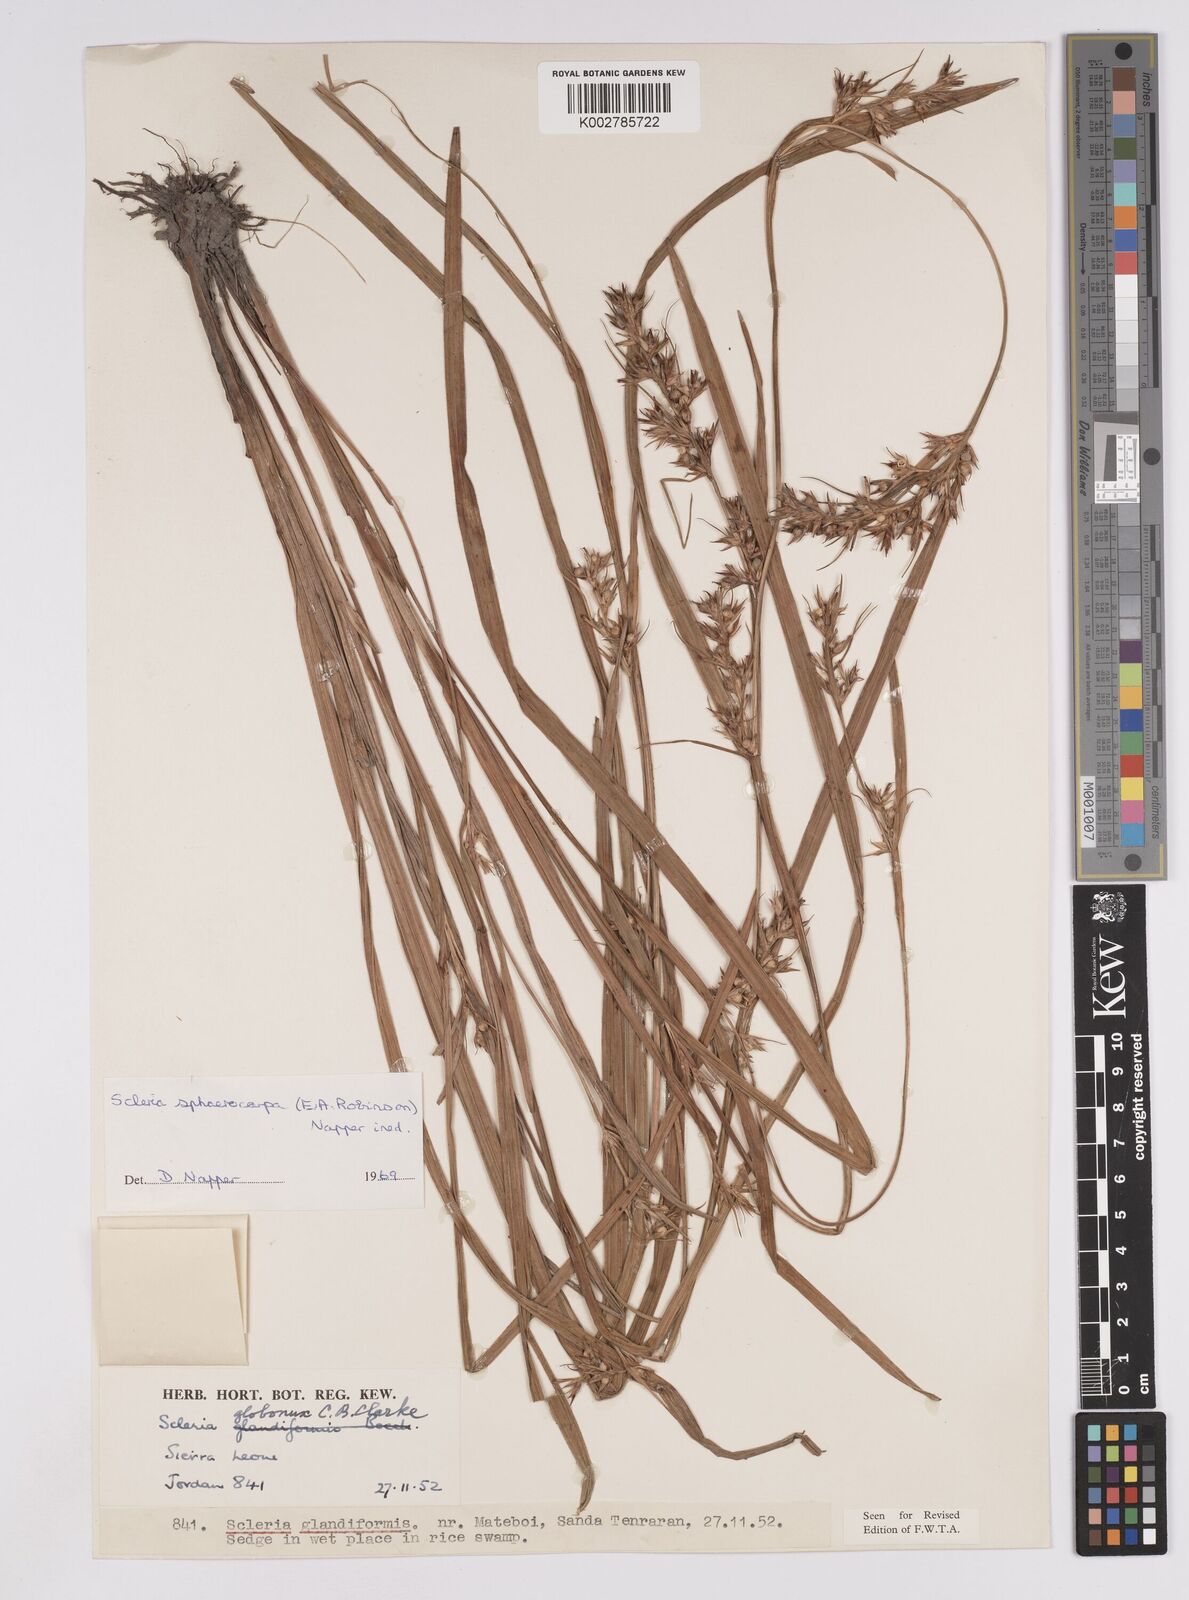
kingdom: Plantae
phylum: Tracheophyta
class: Liliopsida
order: Poales
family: Cyperaceae
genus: Scleria
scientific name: Scleria tessellata
